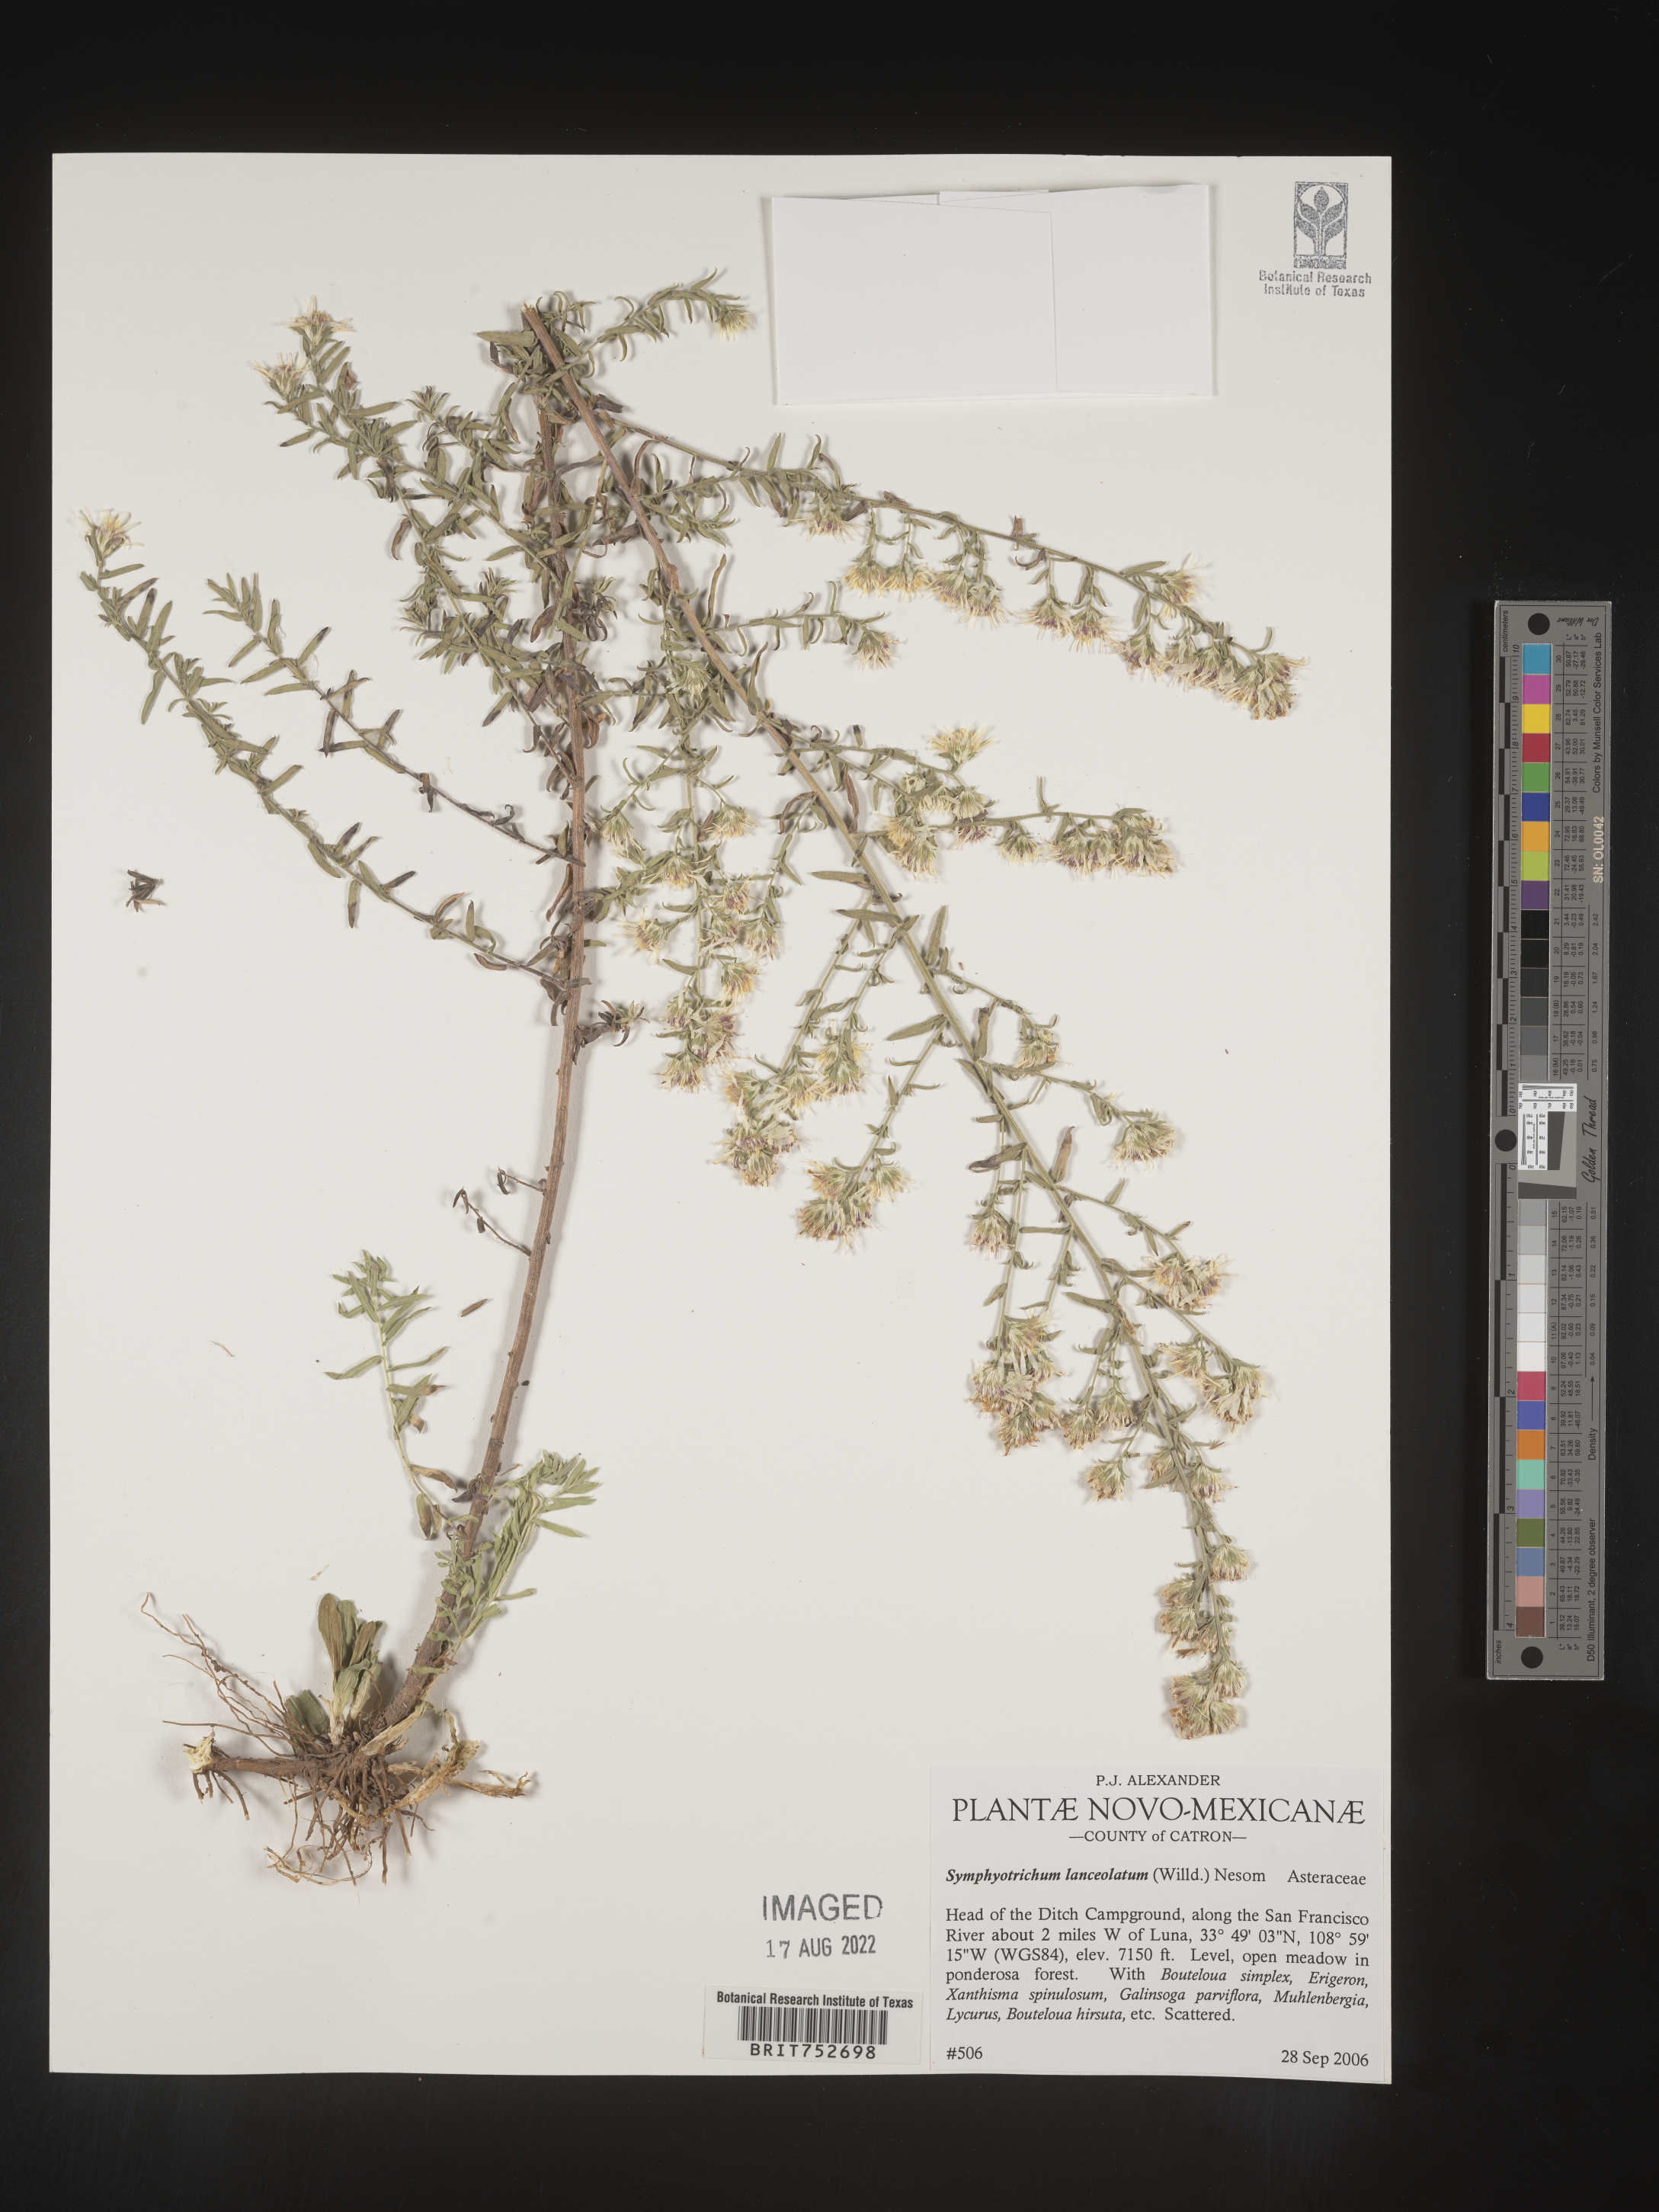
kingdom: Plantae
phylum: Tracheophyta
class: Magnoliopsida
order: Asterales
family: Asteraceae
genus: Symphyotrichum
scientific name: Symphyotrichum lanceolatum
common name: Panicled aster
